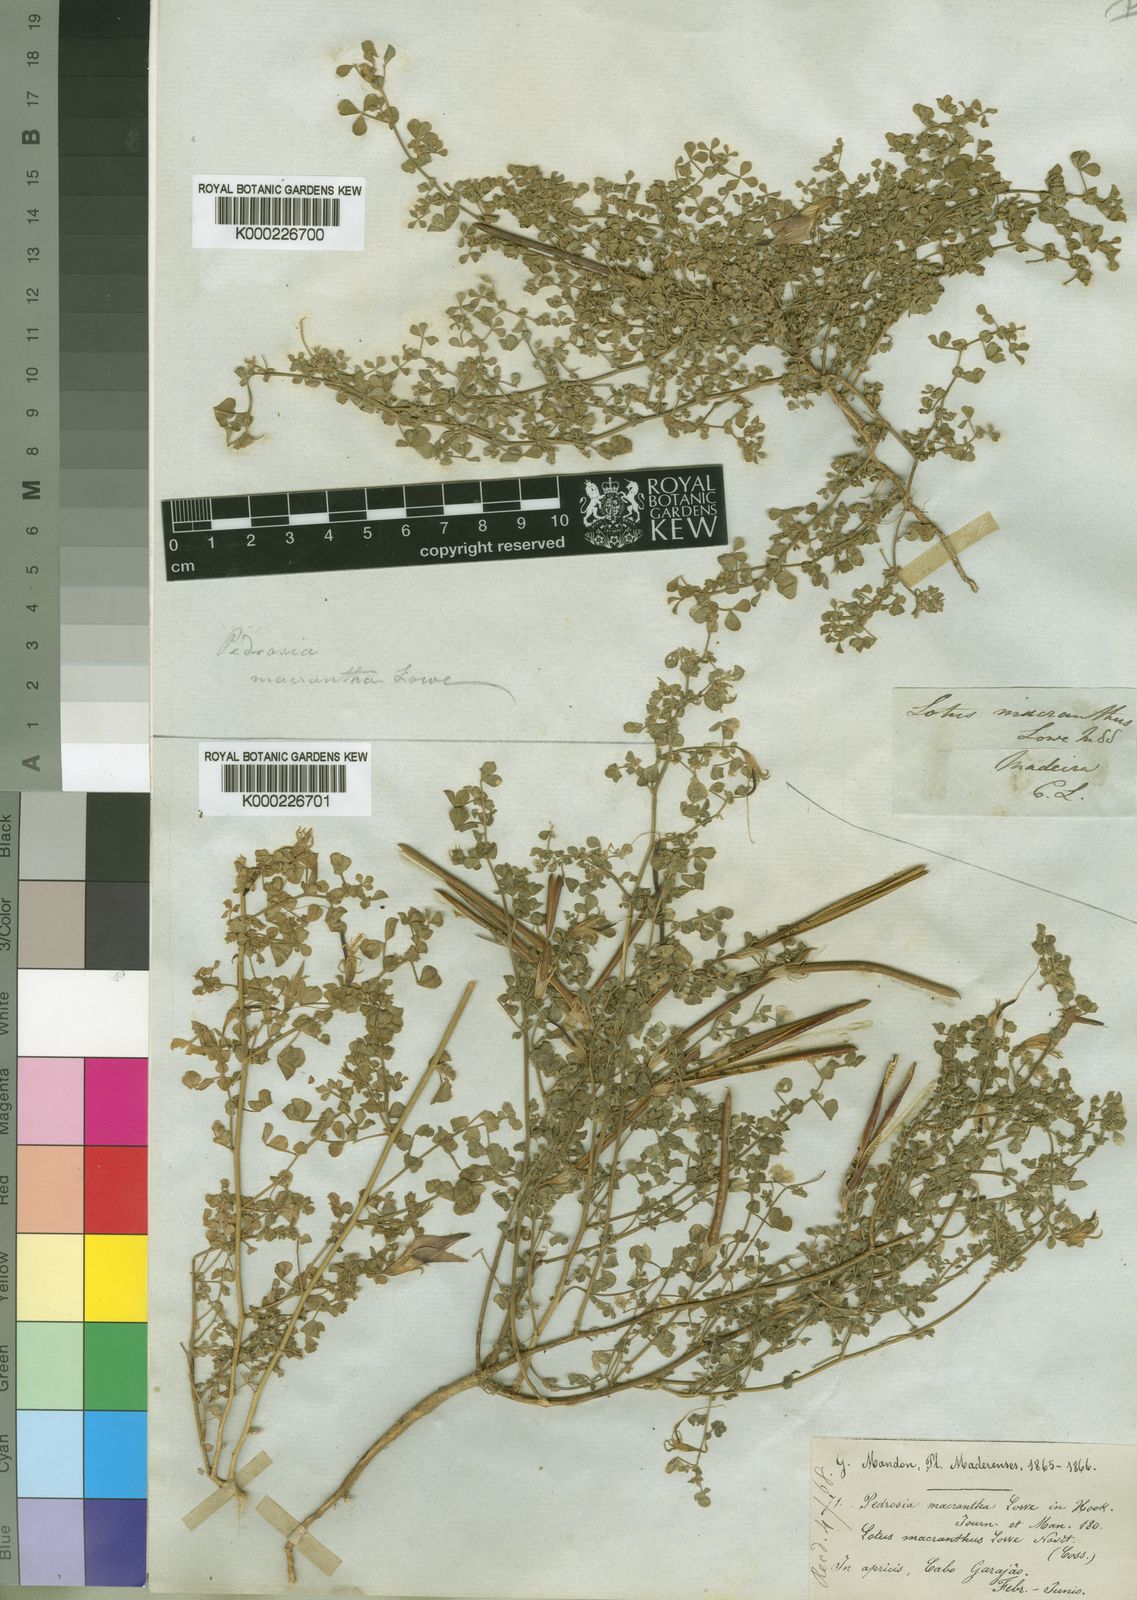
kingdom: Plantae
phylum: Tracheophyta
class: Magnoliopsida
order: Fabales
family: Fabaceae
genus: Lotus
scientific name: Lotus macranthus
